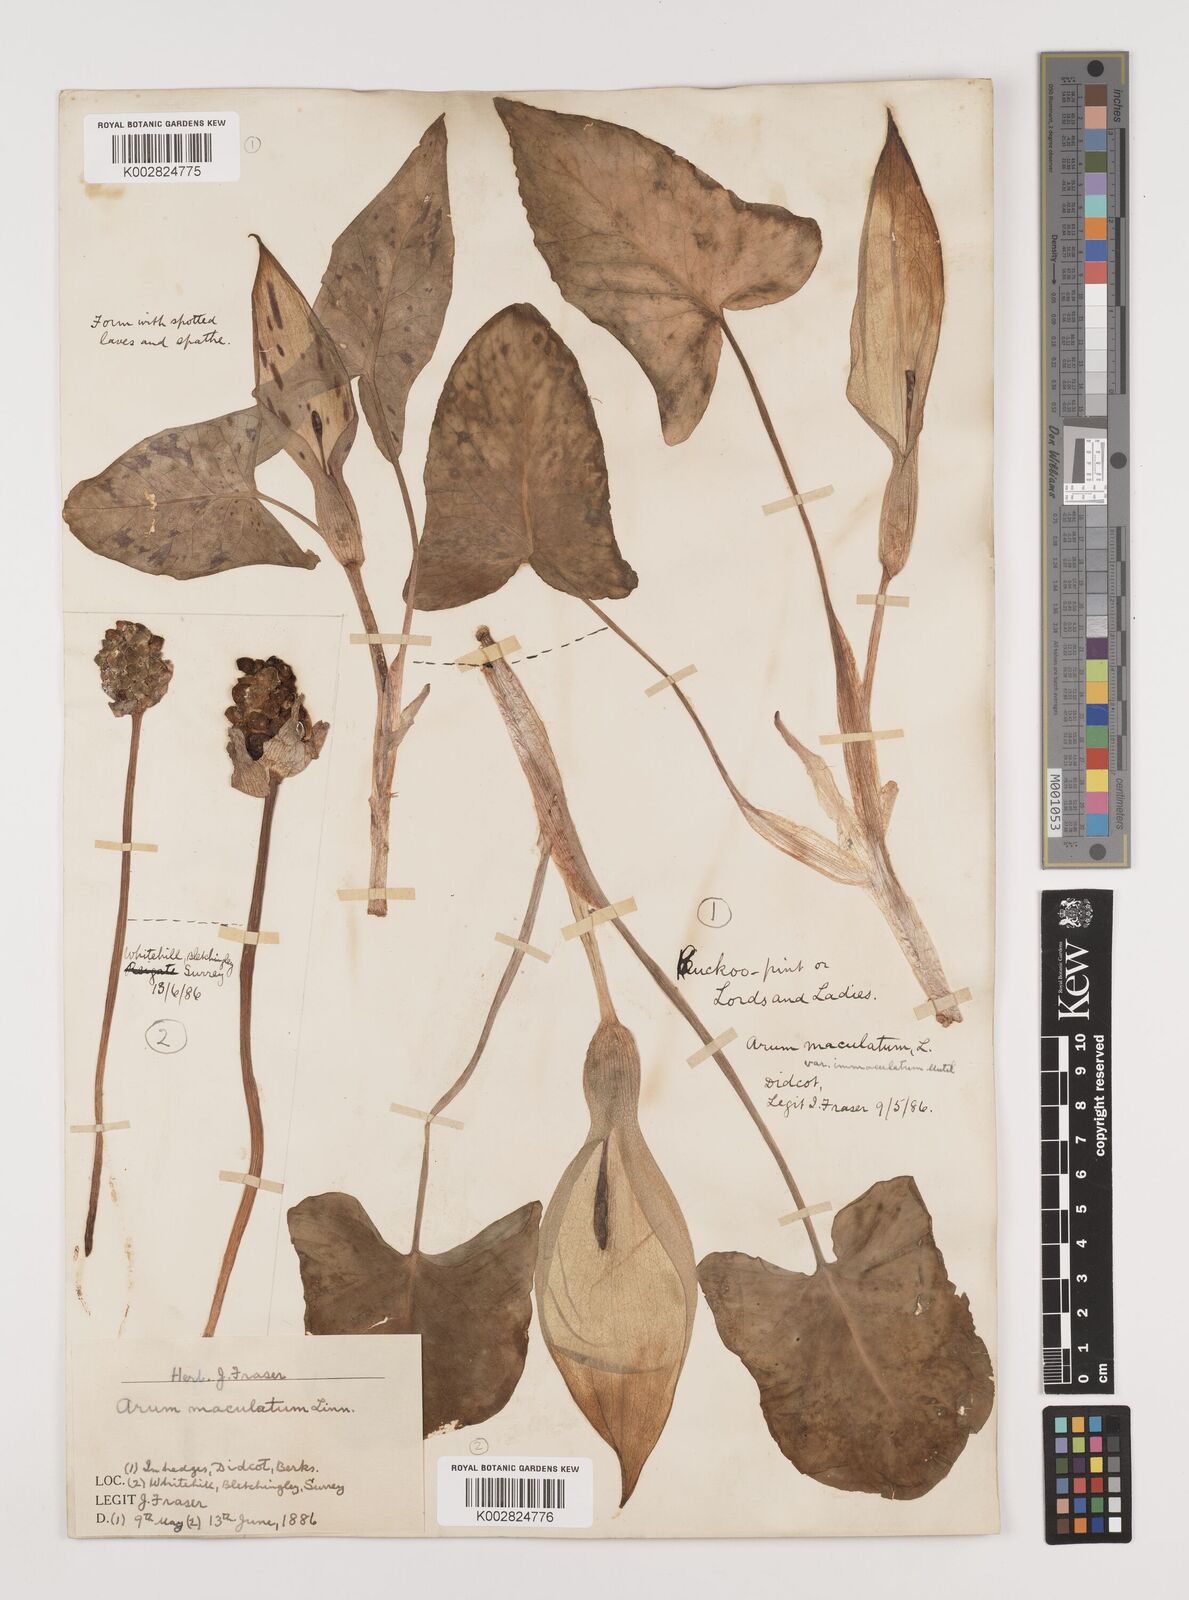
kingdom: Plantae
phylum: Tracheophyta
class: Liliopsida
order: Alismatales
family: Araceae
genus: Arum
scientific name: Arum maculatum
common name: Lords-and-ladies
